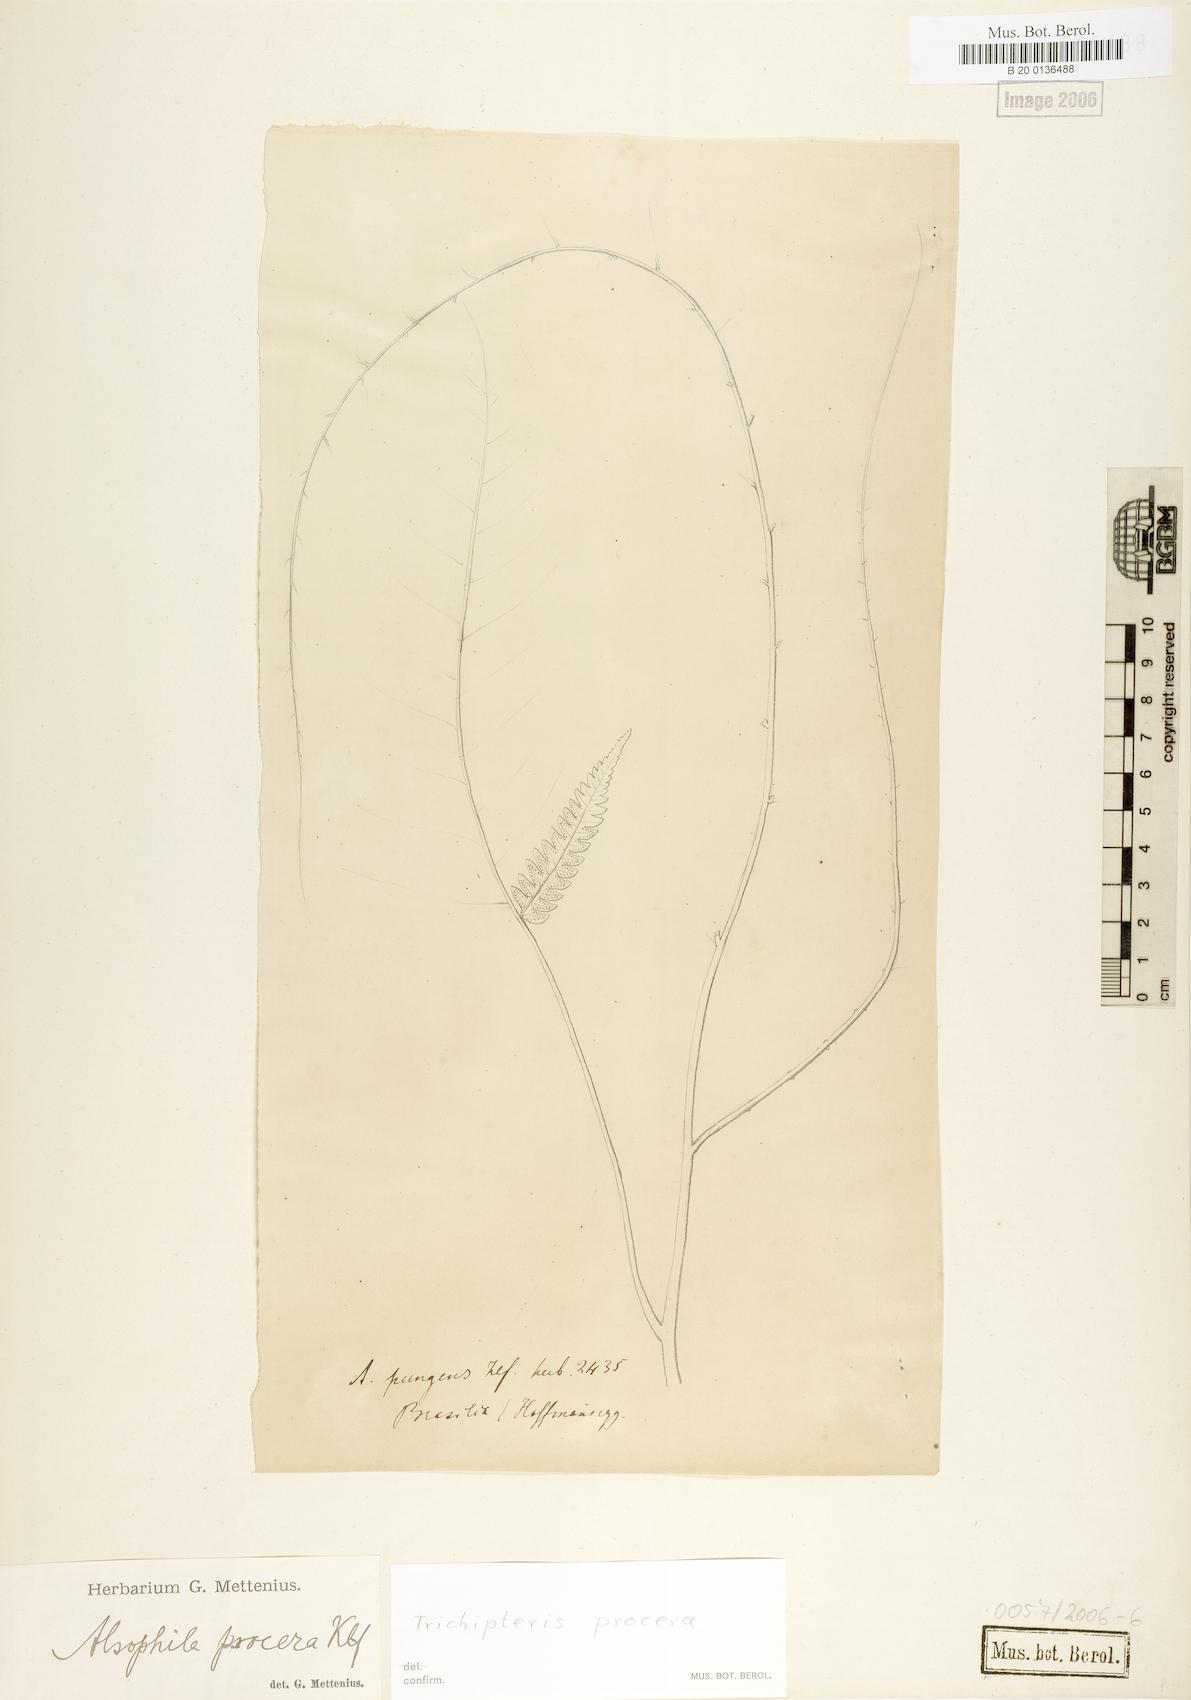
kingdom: Plantae
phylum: Tracheophyta
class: Polypodiopsida
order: Cyatheales
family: Cyatheaceae
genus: Cyathea
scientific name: Cyathea pungens
